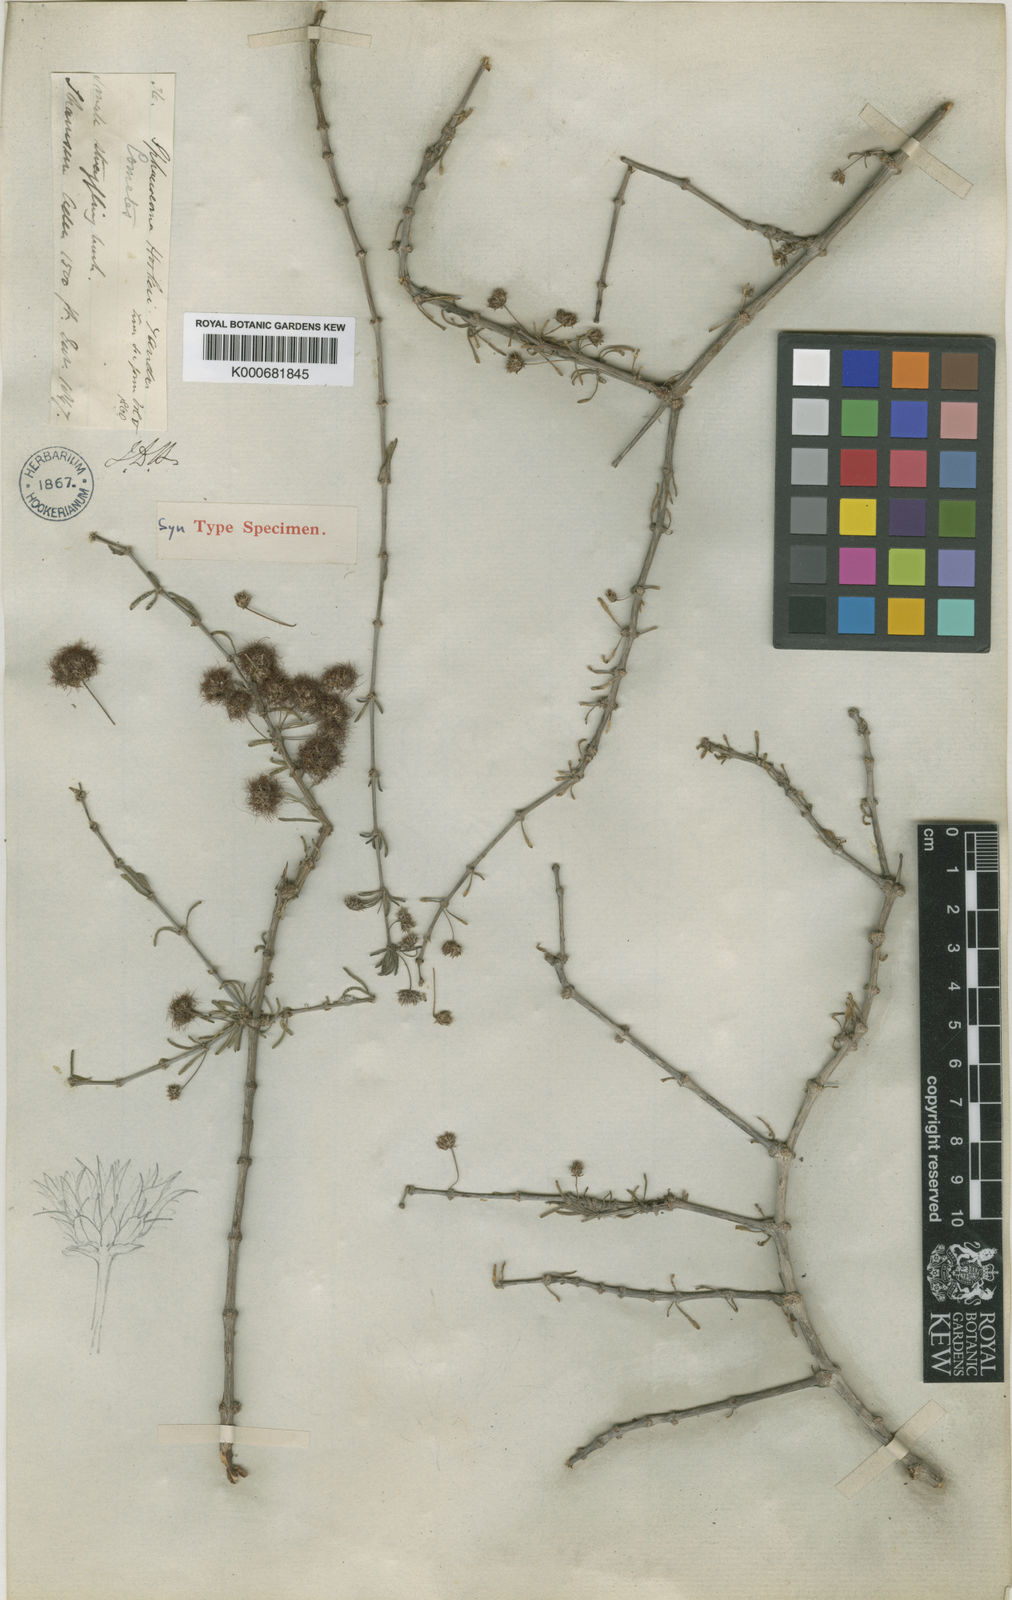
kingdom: Plantae
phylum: Tracheophyta
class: Magnoliopsida
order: Caryophyllales
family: Caryophyllaceae
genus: Sphaerocoma
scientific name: Sphaerocoma hookeri
